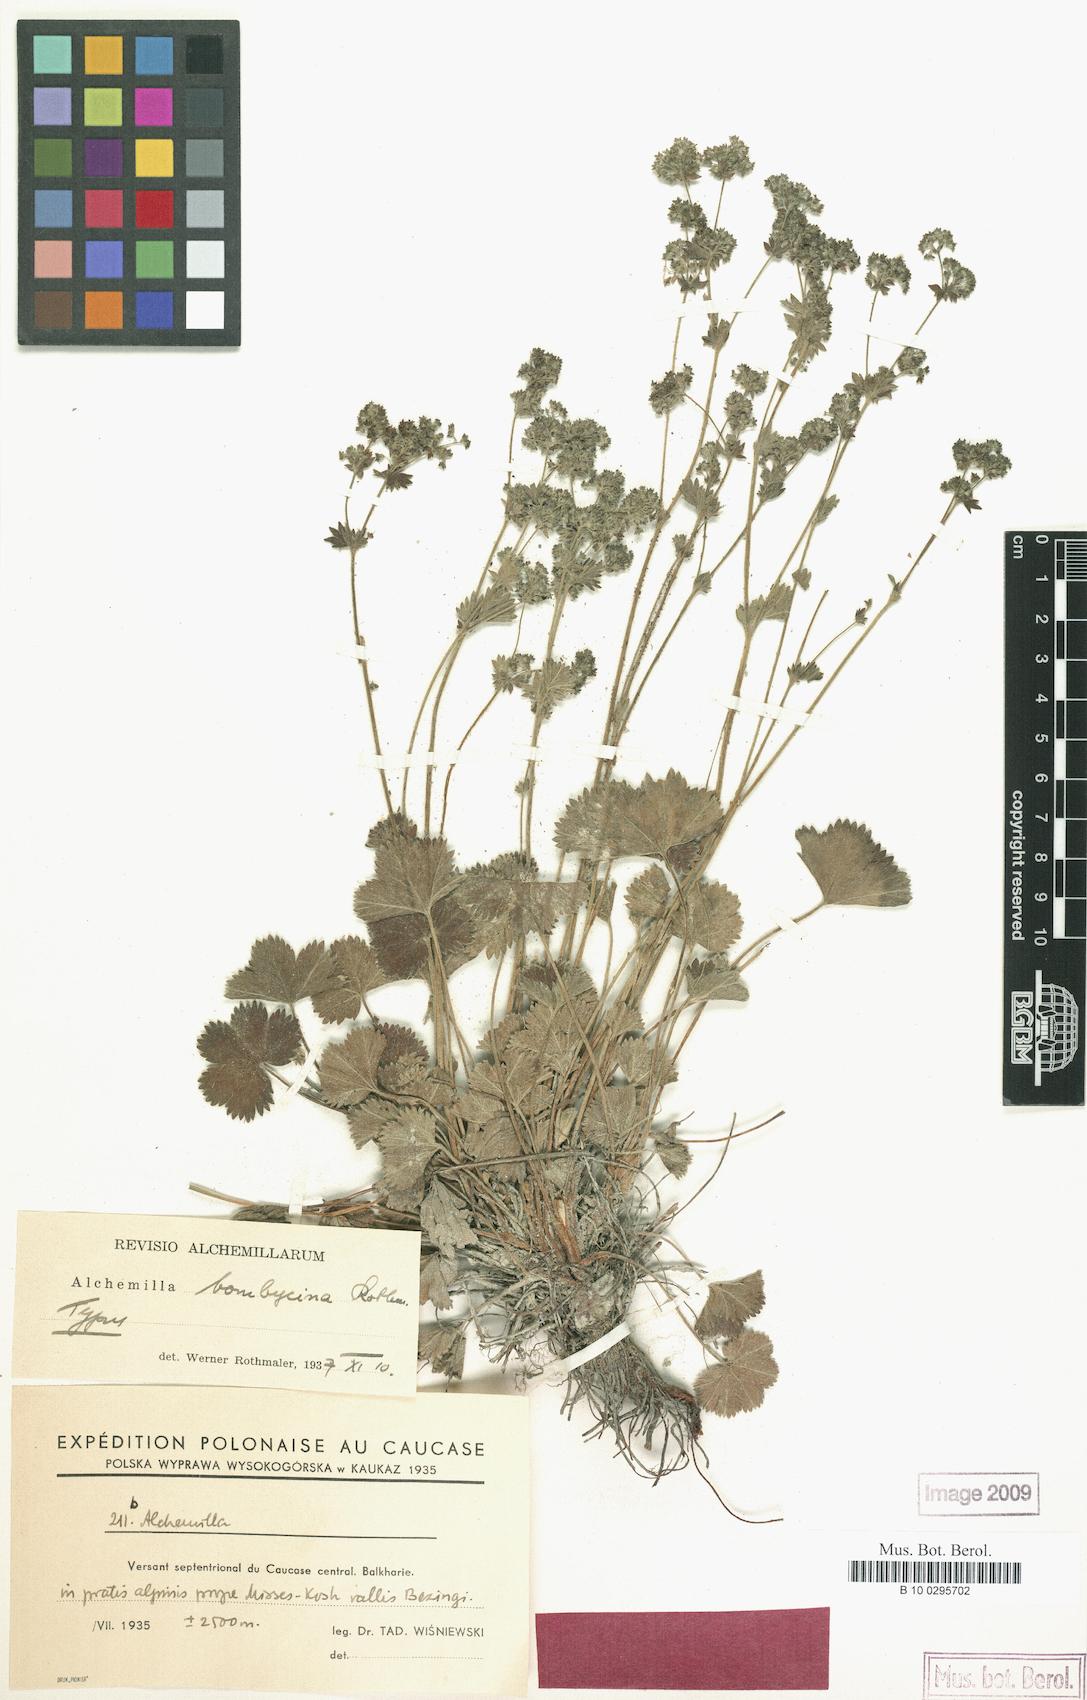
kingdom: Plantae
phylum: Tracheophyta
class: Magnoliopsida
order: Rosales
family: Rosaceae
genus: Alchemilla
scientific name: Alchemilla bombycina
